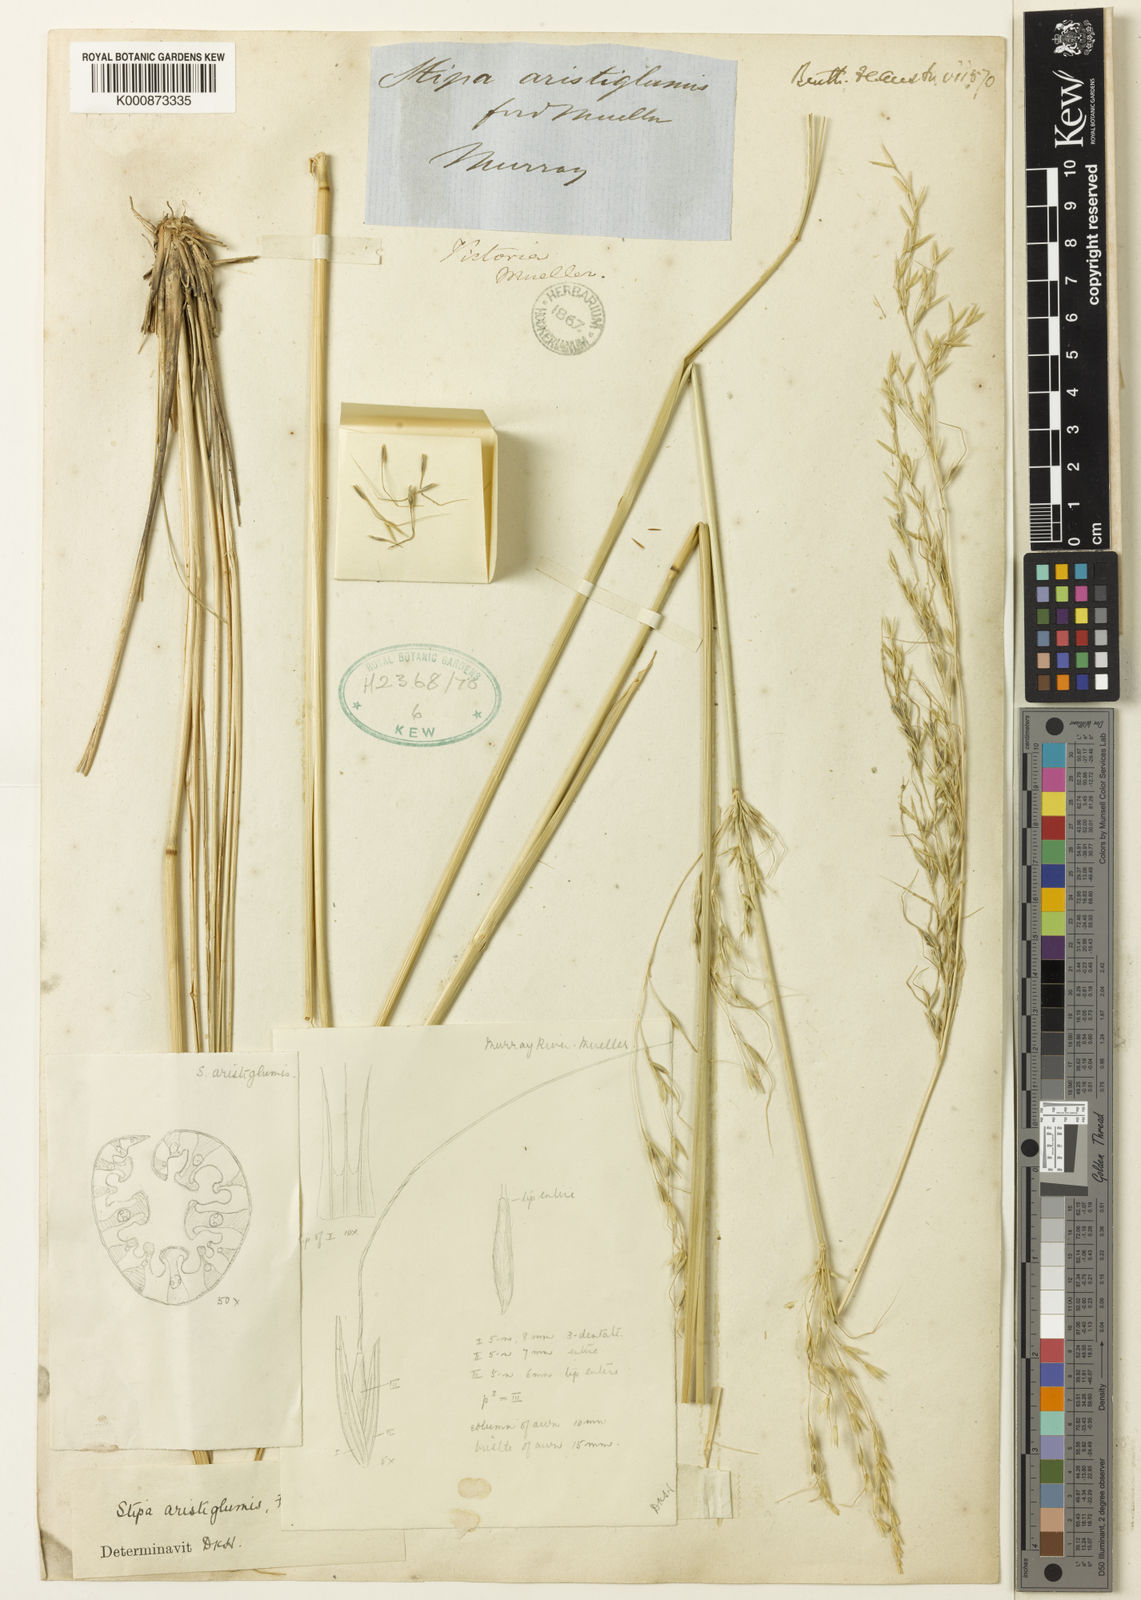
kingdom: Plantae
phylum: Tracheophyta
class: Liliopsida
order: Poales
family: Poaceae
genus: Austrostipa
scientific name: Austrostipa aristiglumis
